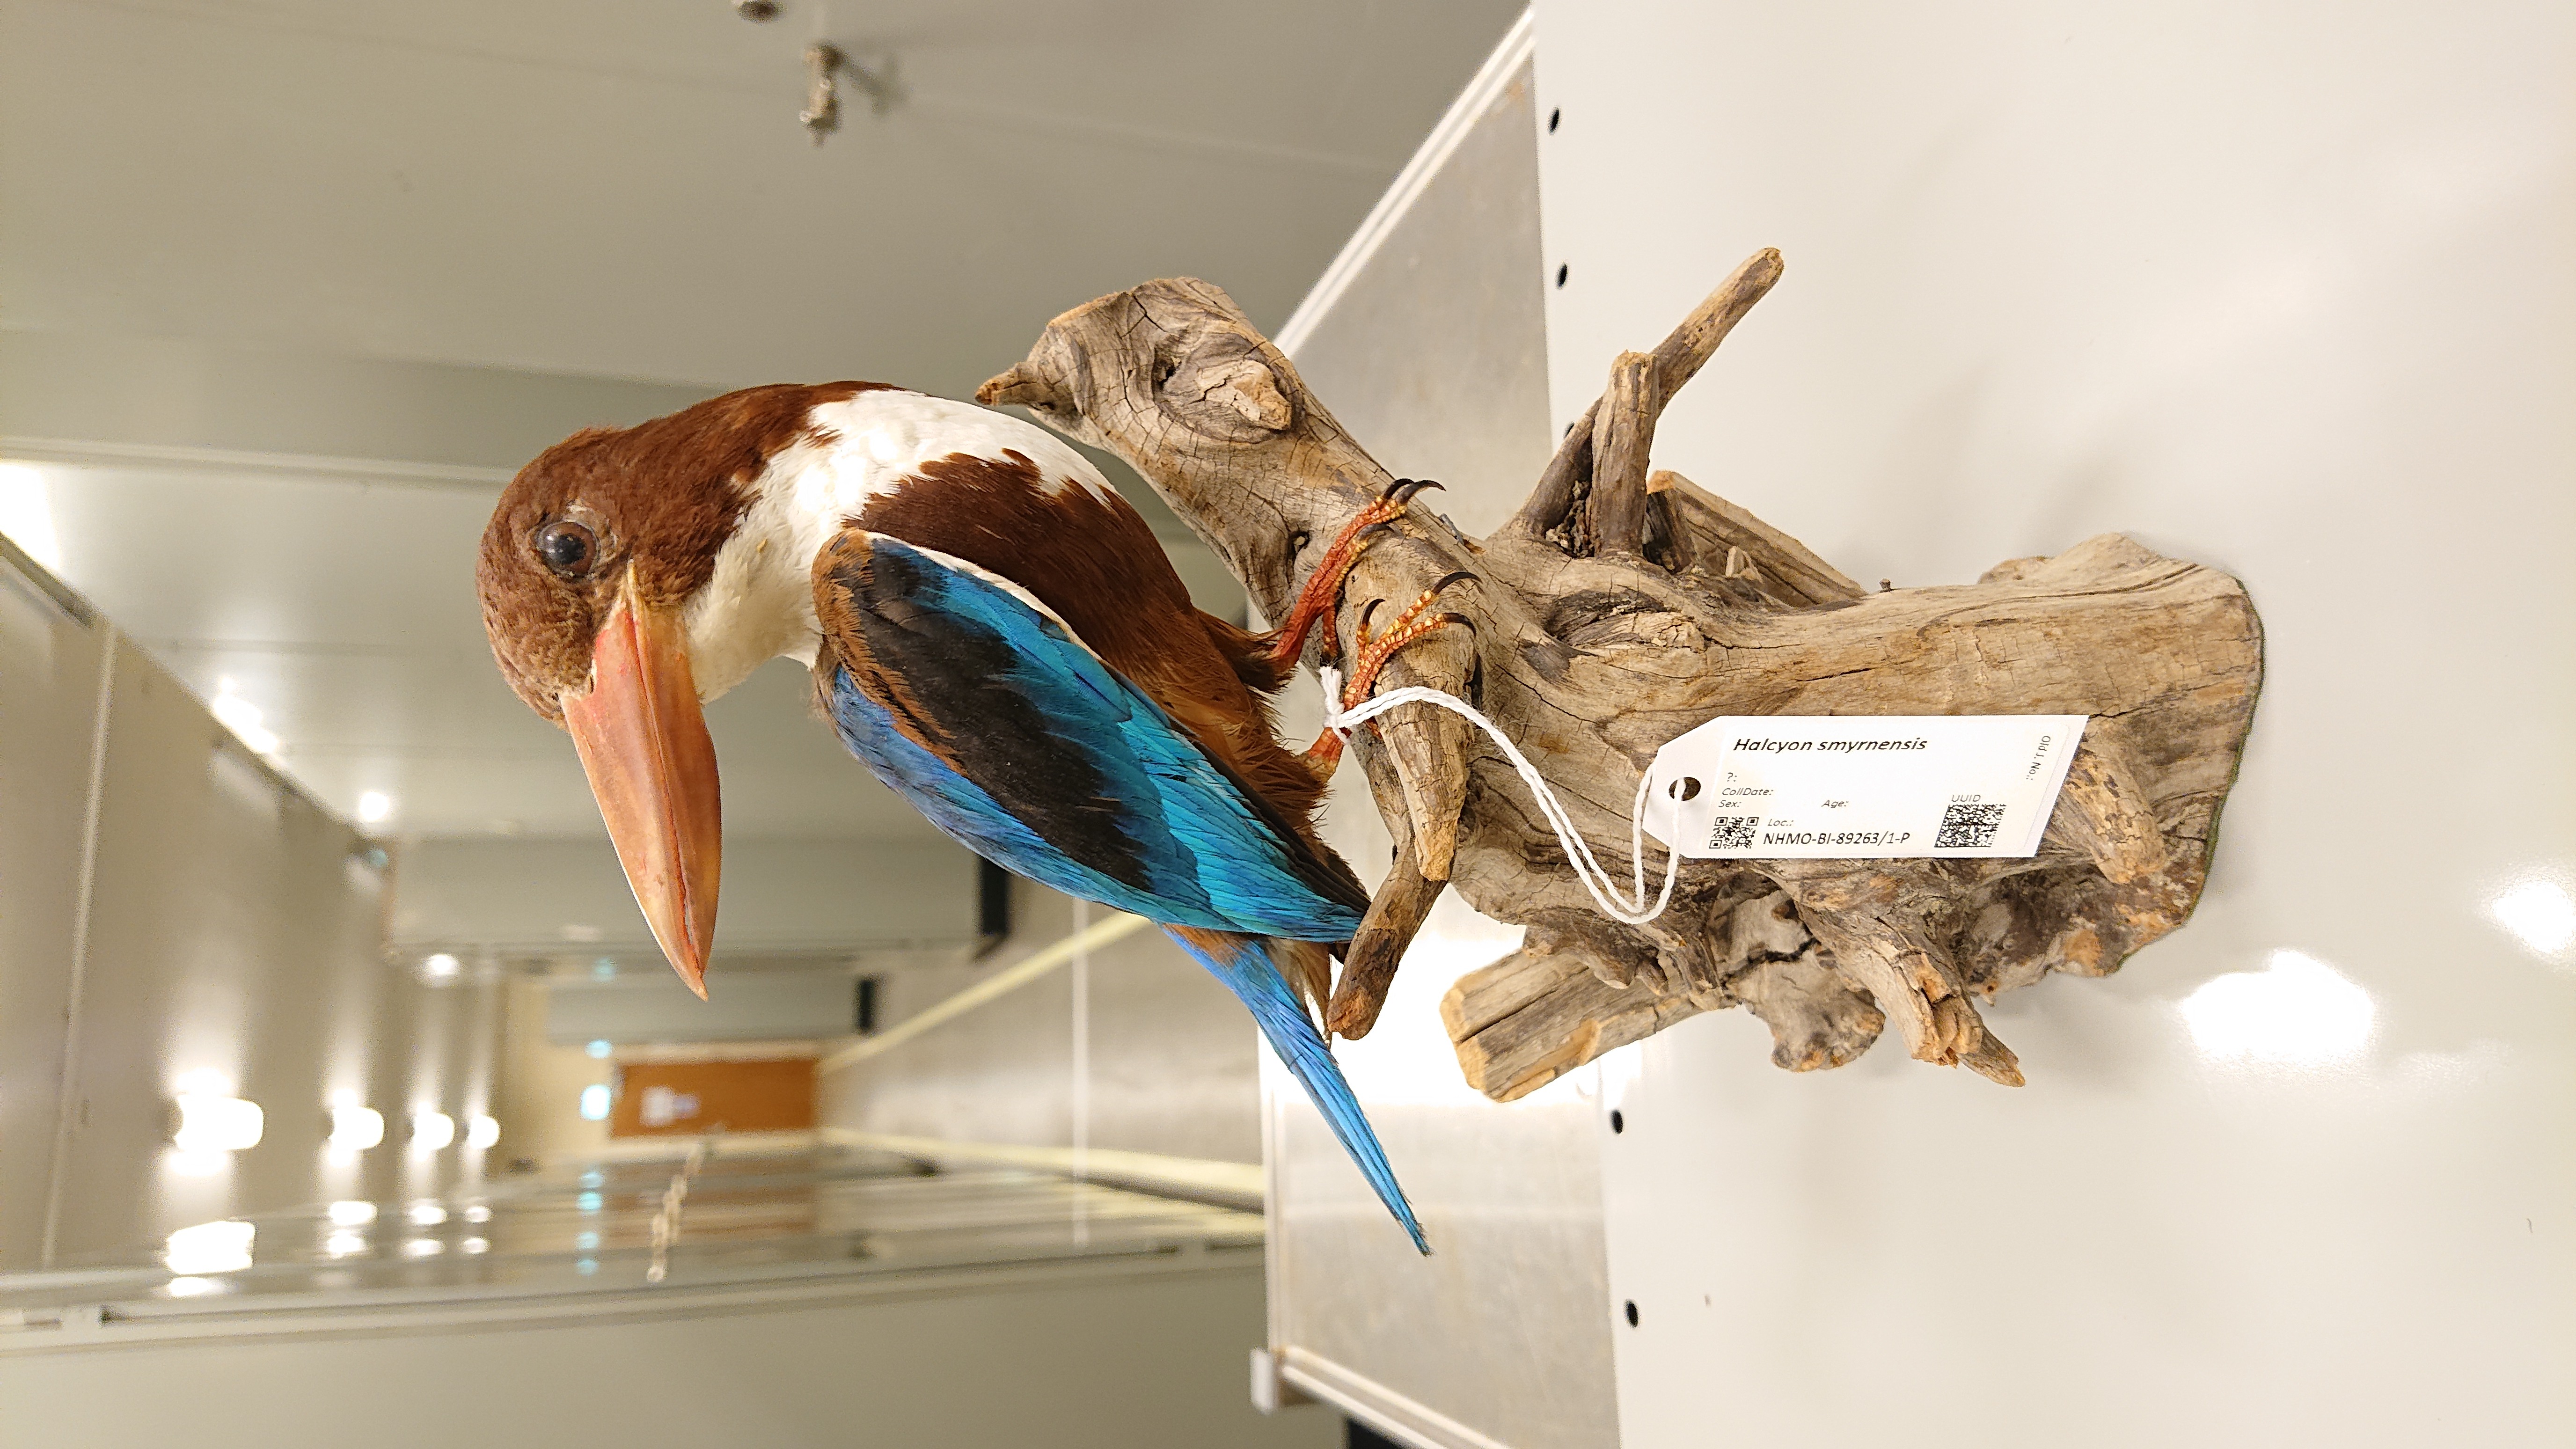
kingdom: Animalia
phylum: Chordata
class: Aves
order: Coraciiformes
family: Alcedinidae
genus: Halcyon
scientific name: Halcyon smyrnensis
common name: White-throated kingfisher
